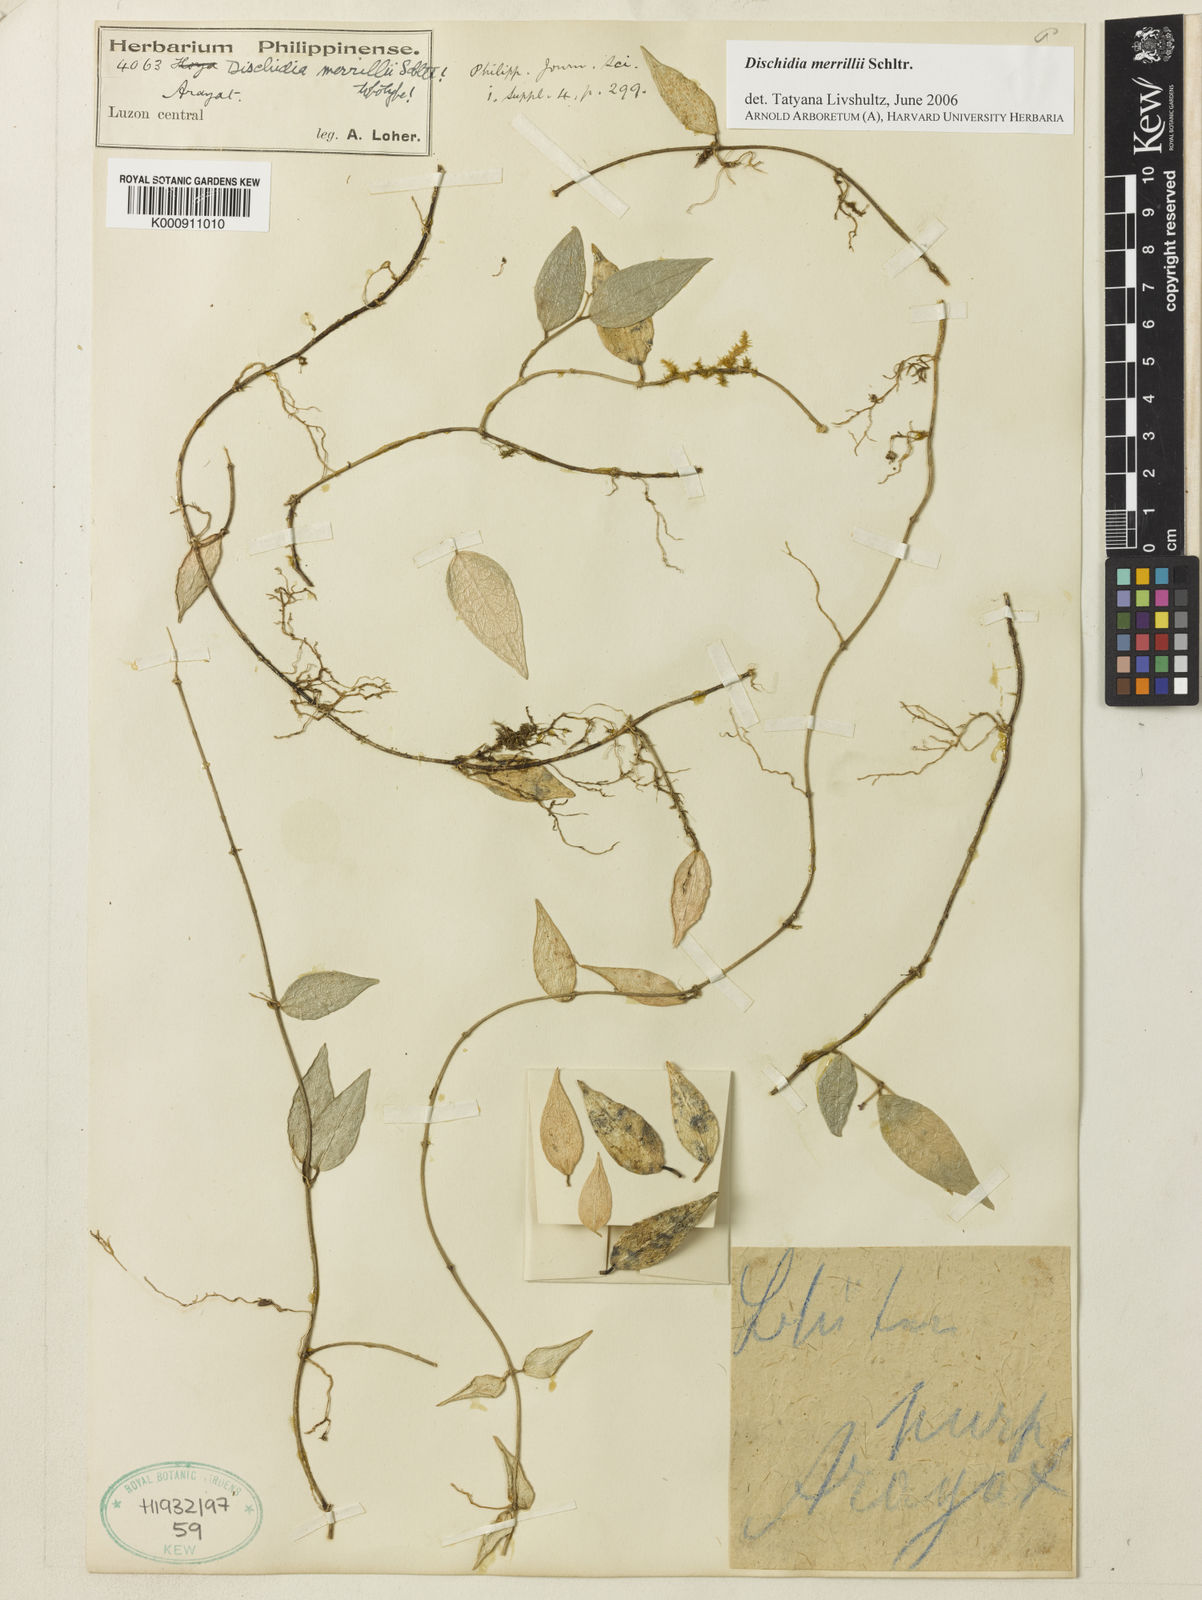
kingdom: Plantae
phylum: Tracheophyta
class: Magnoliopsida
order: Gentianales
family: Apocynaceae
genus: Dischidia
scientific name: Dischidia merrillii
